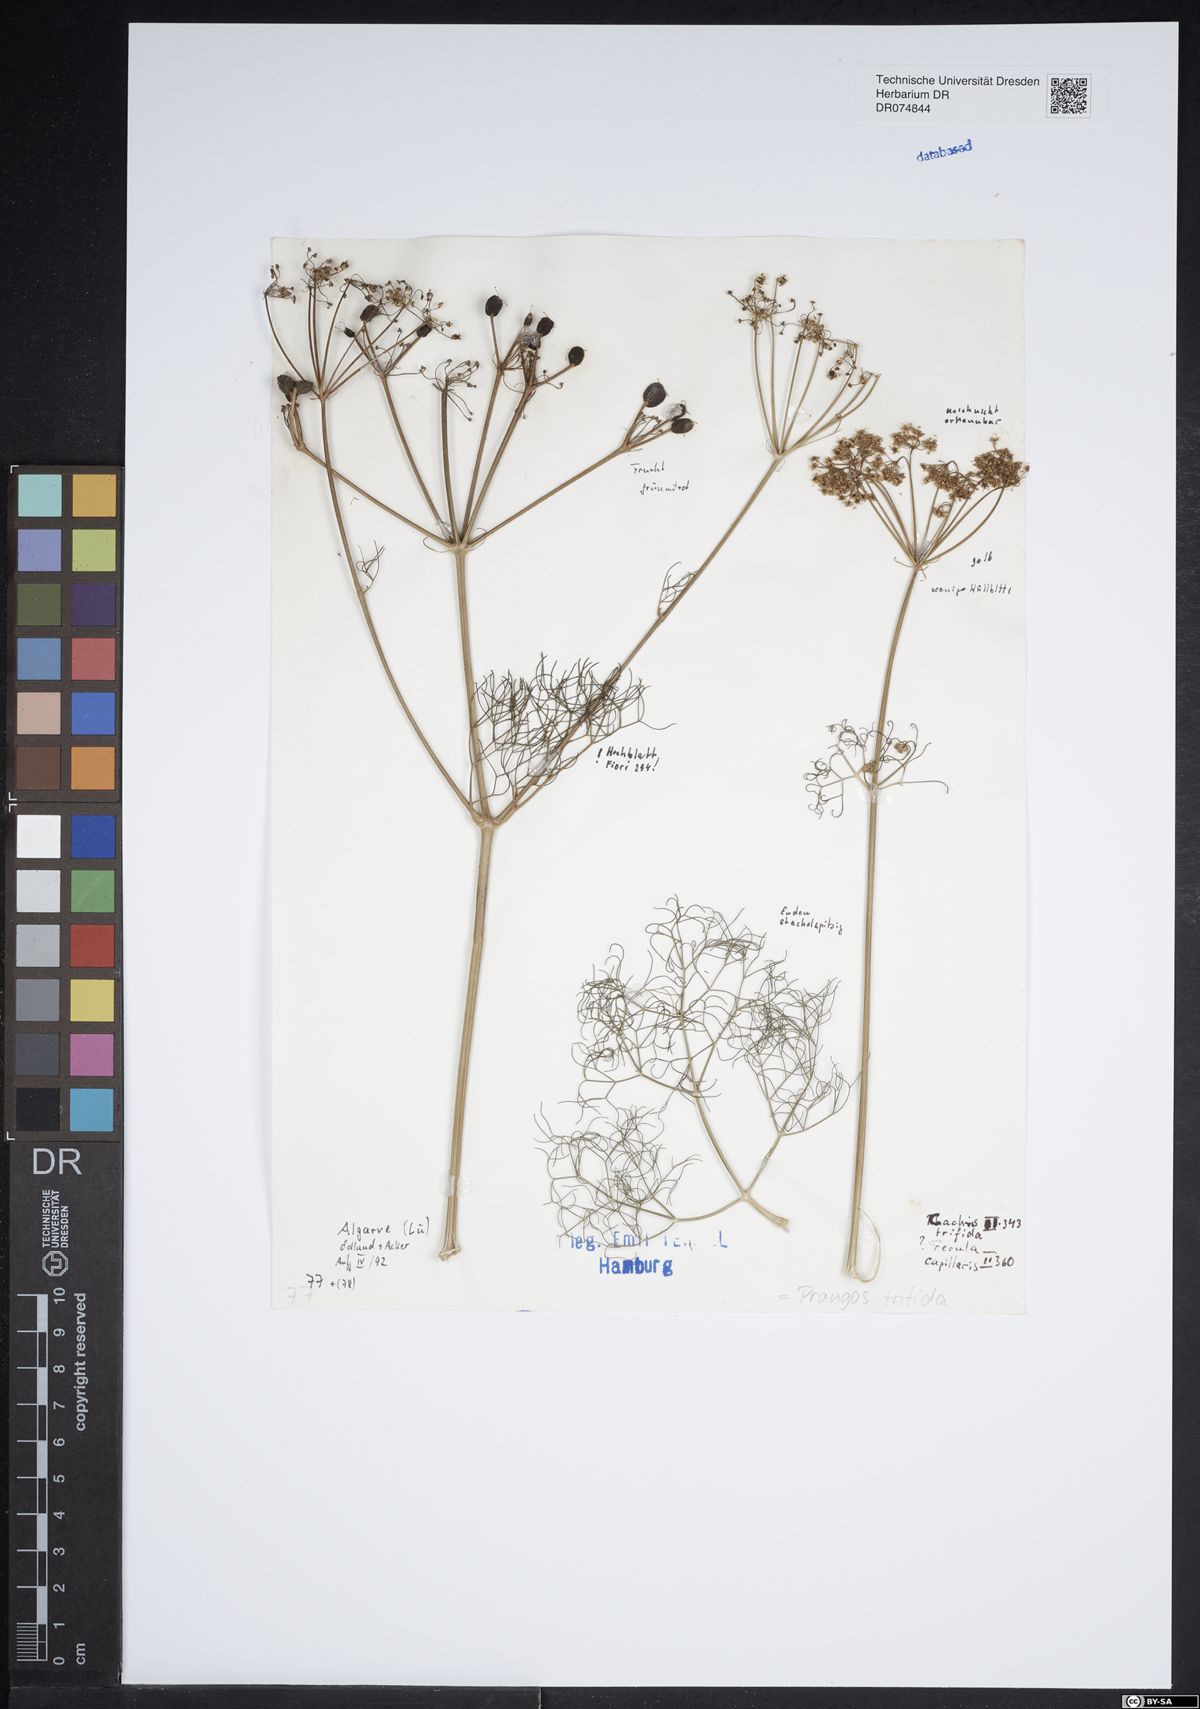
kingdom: Plantae
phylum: Tracheophyta
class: Magnoliopsida
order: Apiales
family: Apiaceae
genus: Prangos
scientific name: Prangos trifida
